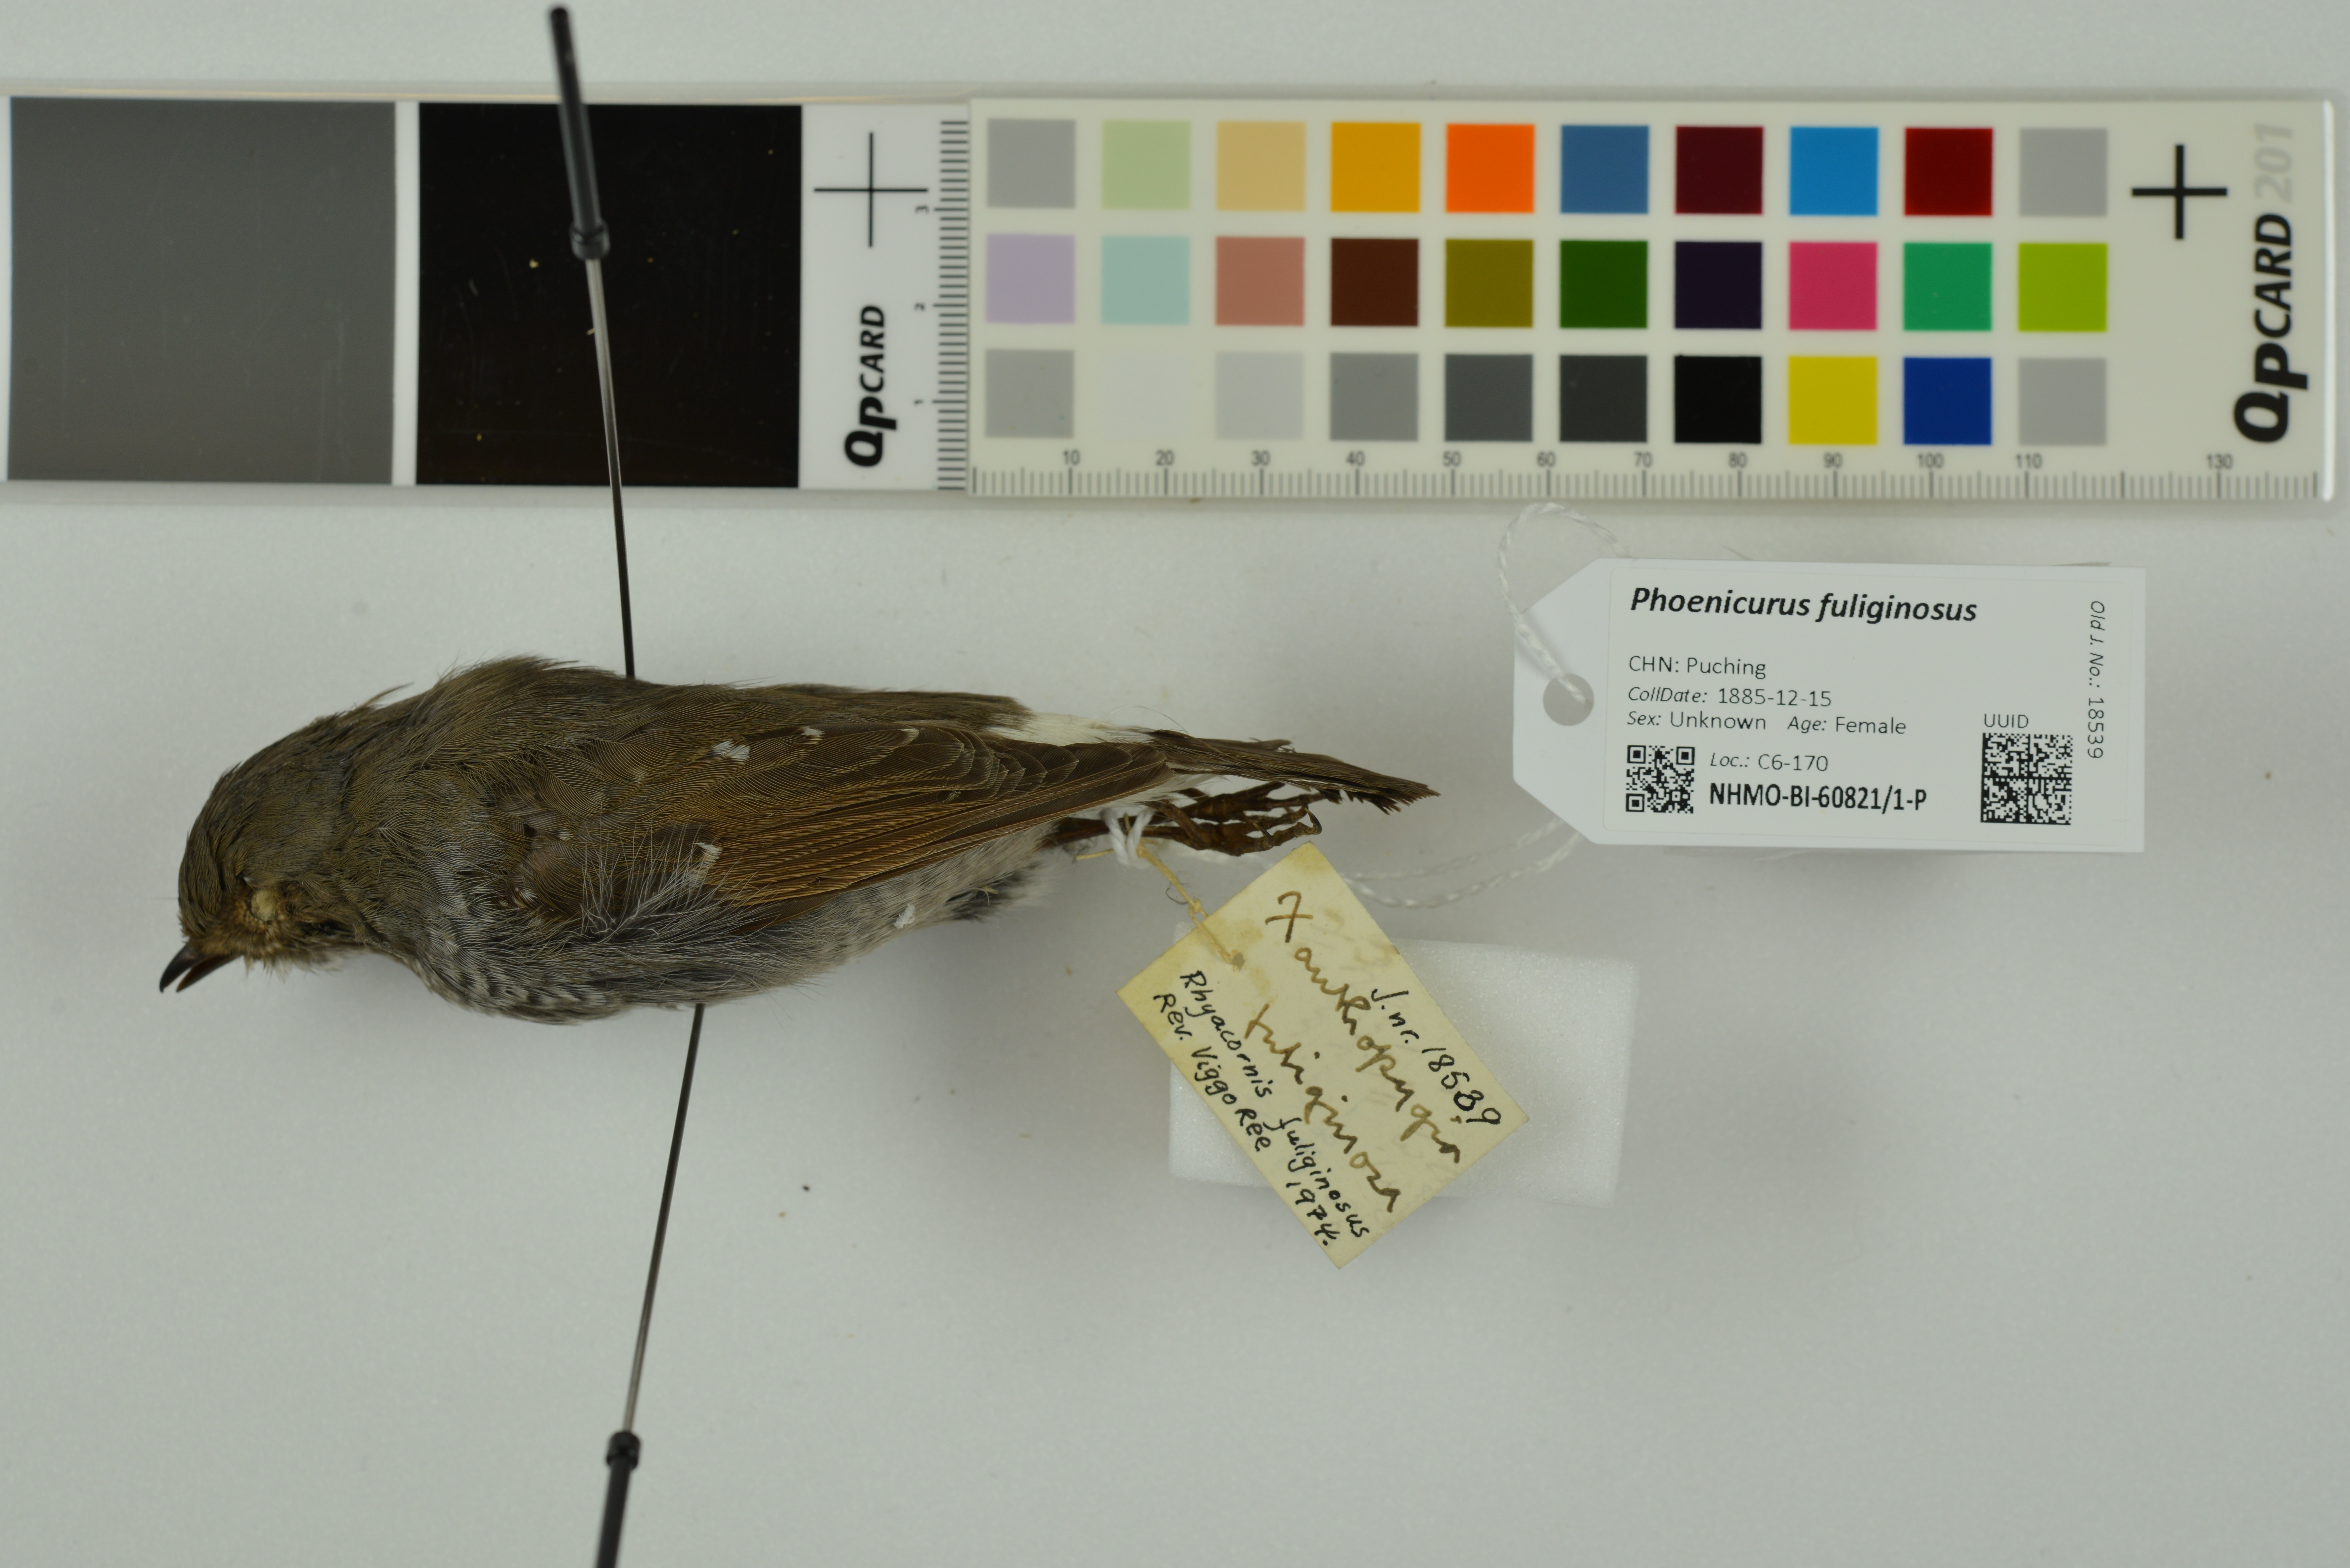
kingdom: Animalia
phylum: Chordata
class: Aves
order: Passeriformes
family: Muscicapidae
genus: Phoenicurus
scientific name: Phoenicurus fuliginosus
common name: Plumbeous water redstart
